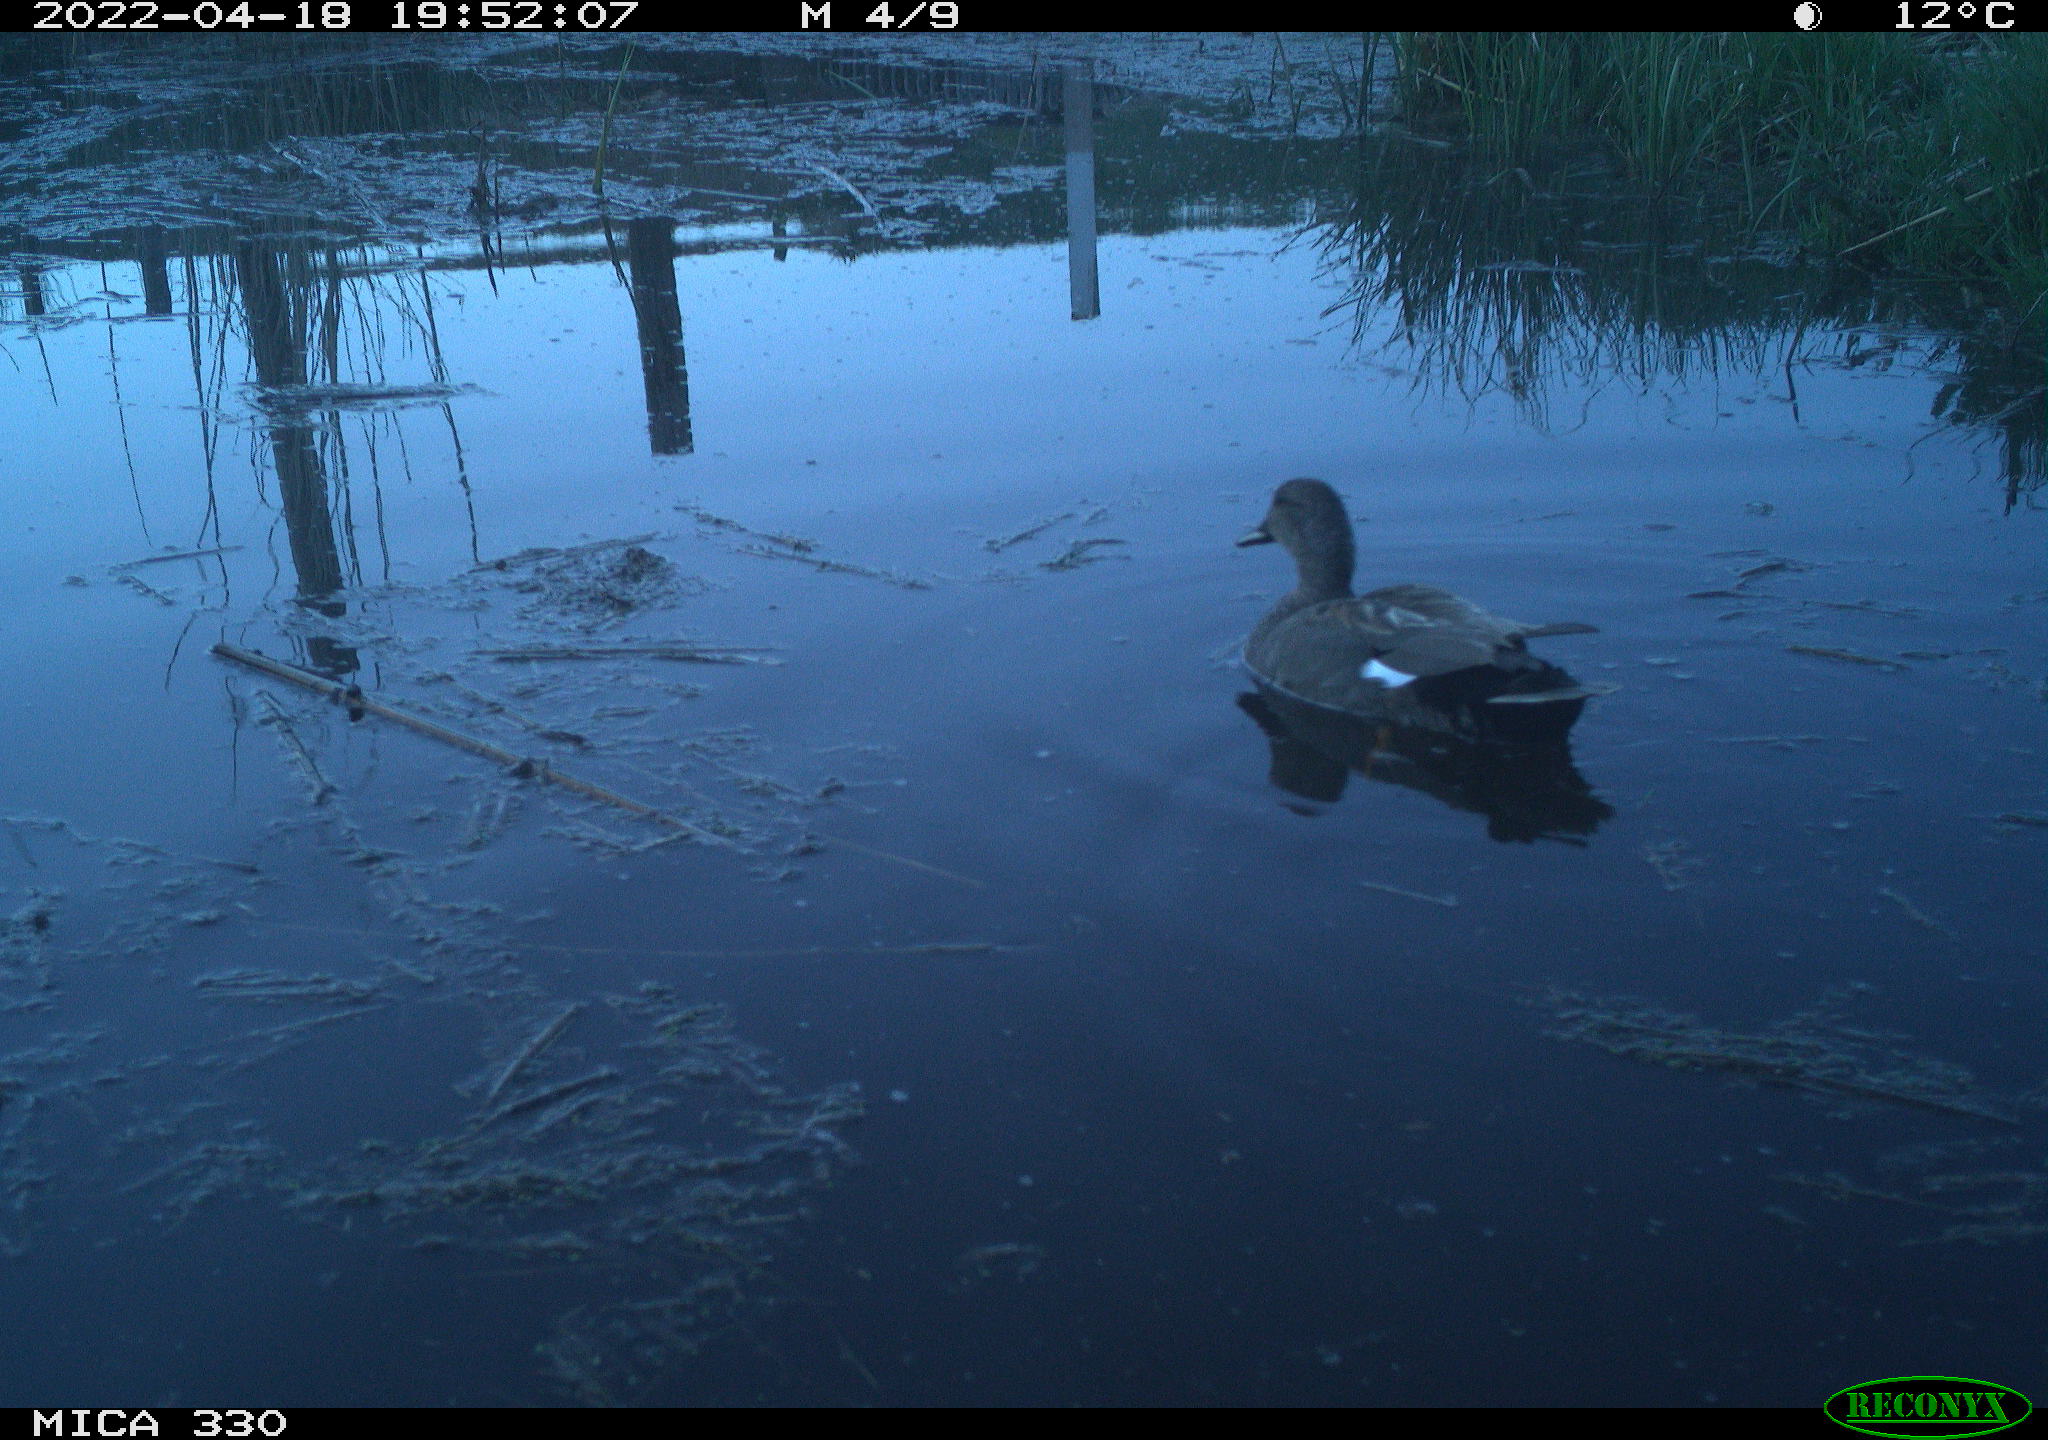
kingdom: Animalia
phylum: Chordata
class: Aves
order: Gruiformes
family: Rallidae
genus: Gallinula
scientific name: Gallinula chloropus
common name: Common moorhen
